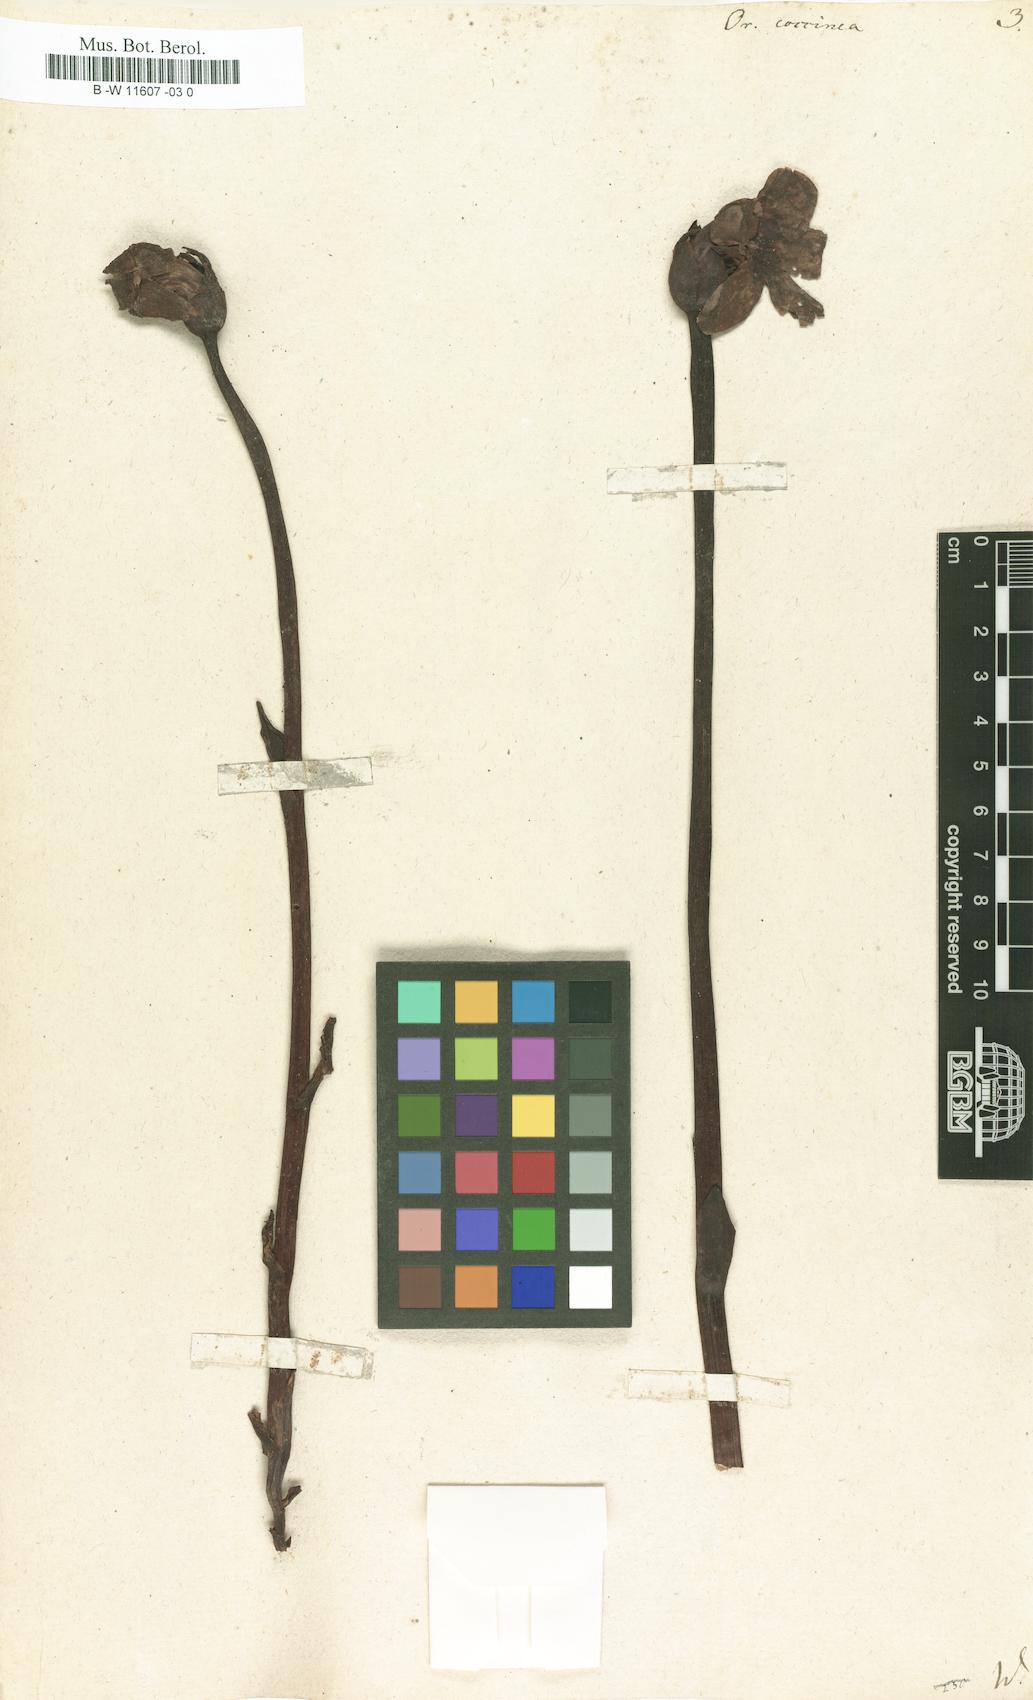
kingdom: Plantae
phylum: Tracheophyta
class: Magnoliopsida
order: Lamiales
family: Orobanchaceae
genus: Diphelypaea
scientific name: Diphelypaea coccinea
